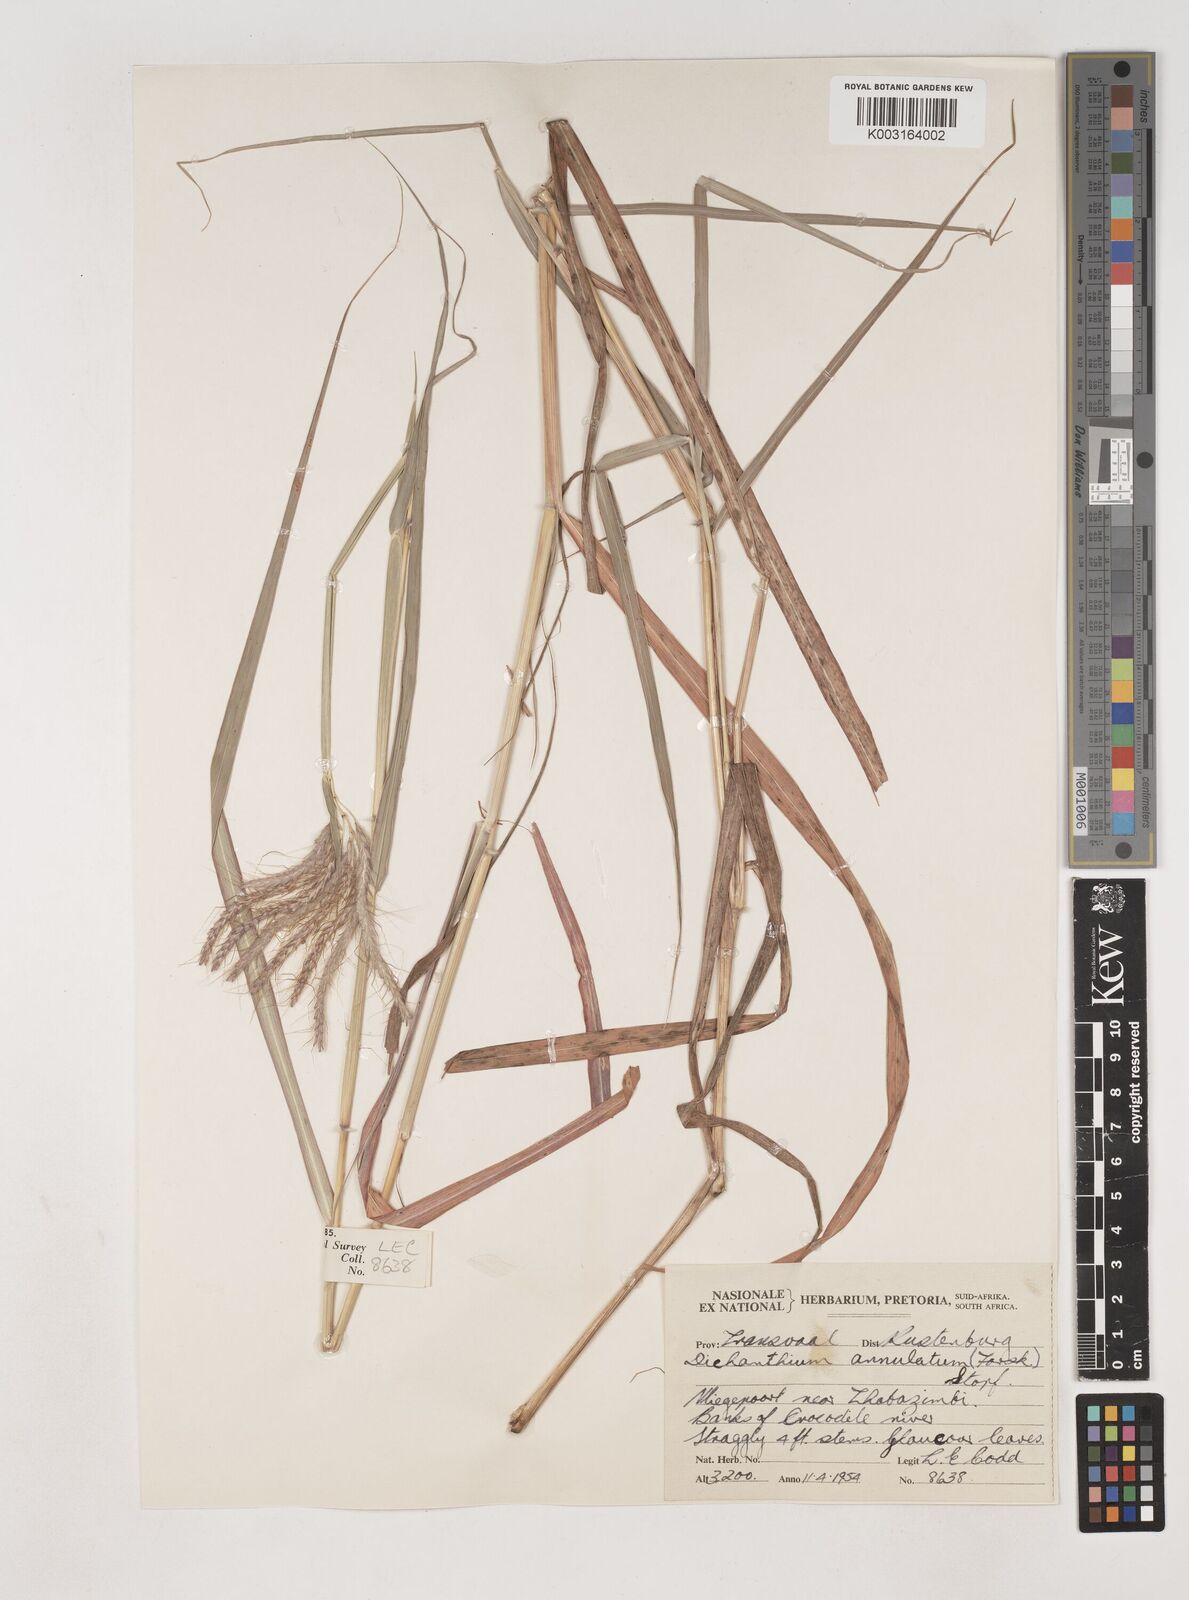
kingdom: Plantae
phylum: Tracheophyta
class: Liliopsida
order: Poales
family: Poaceae
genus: Dichanthium
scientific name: Dichanthium annulatum
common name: Kleberg's bluestem
